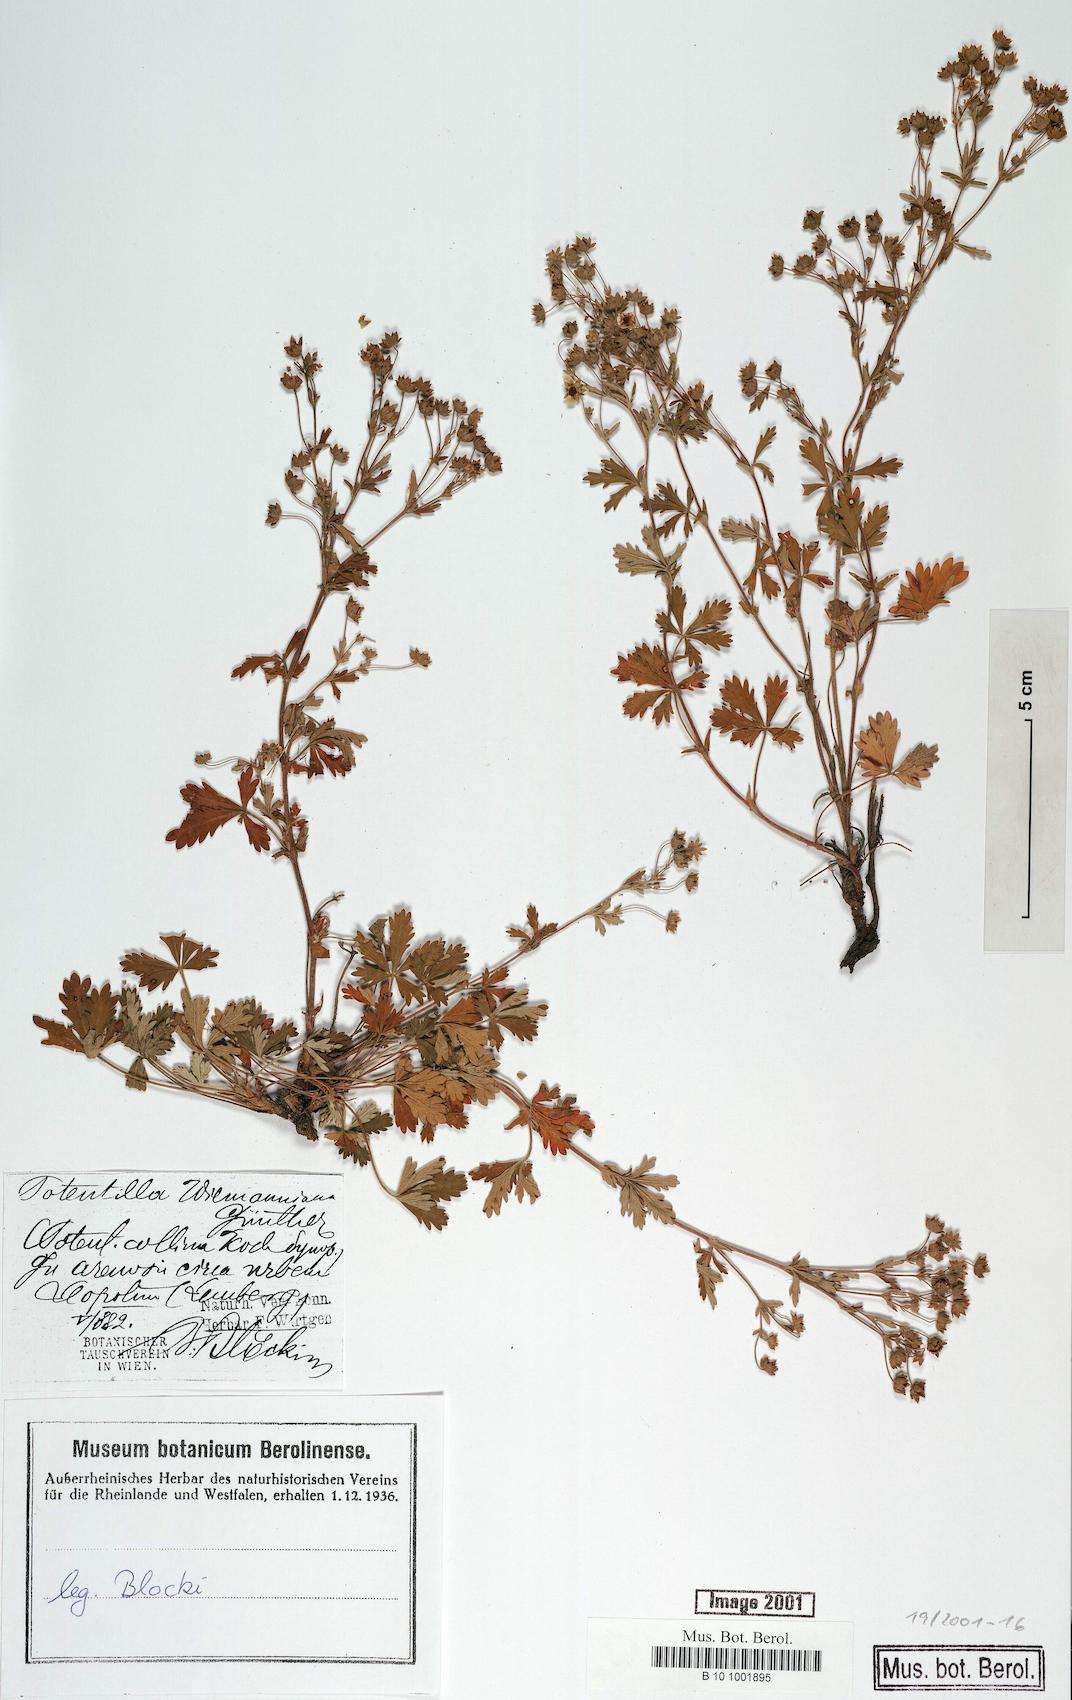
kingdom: Plantae
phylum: Tracheophyta
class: Magnoliopsida
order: Rosales
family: Rosaceae
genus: Potentilla
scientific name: Potentilla
